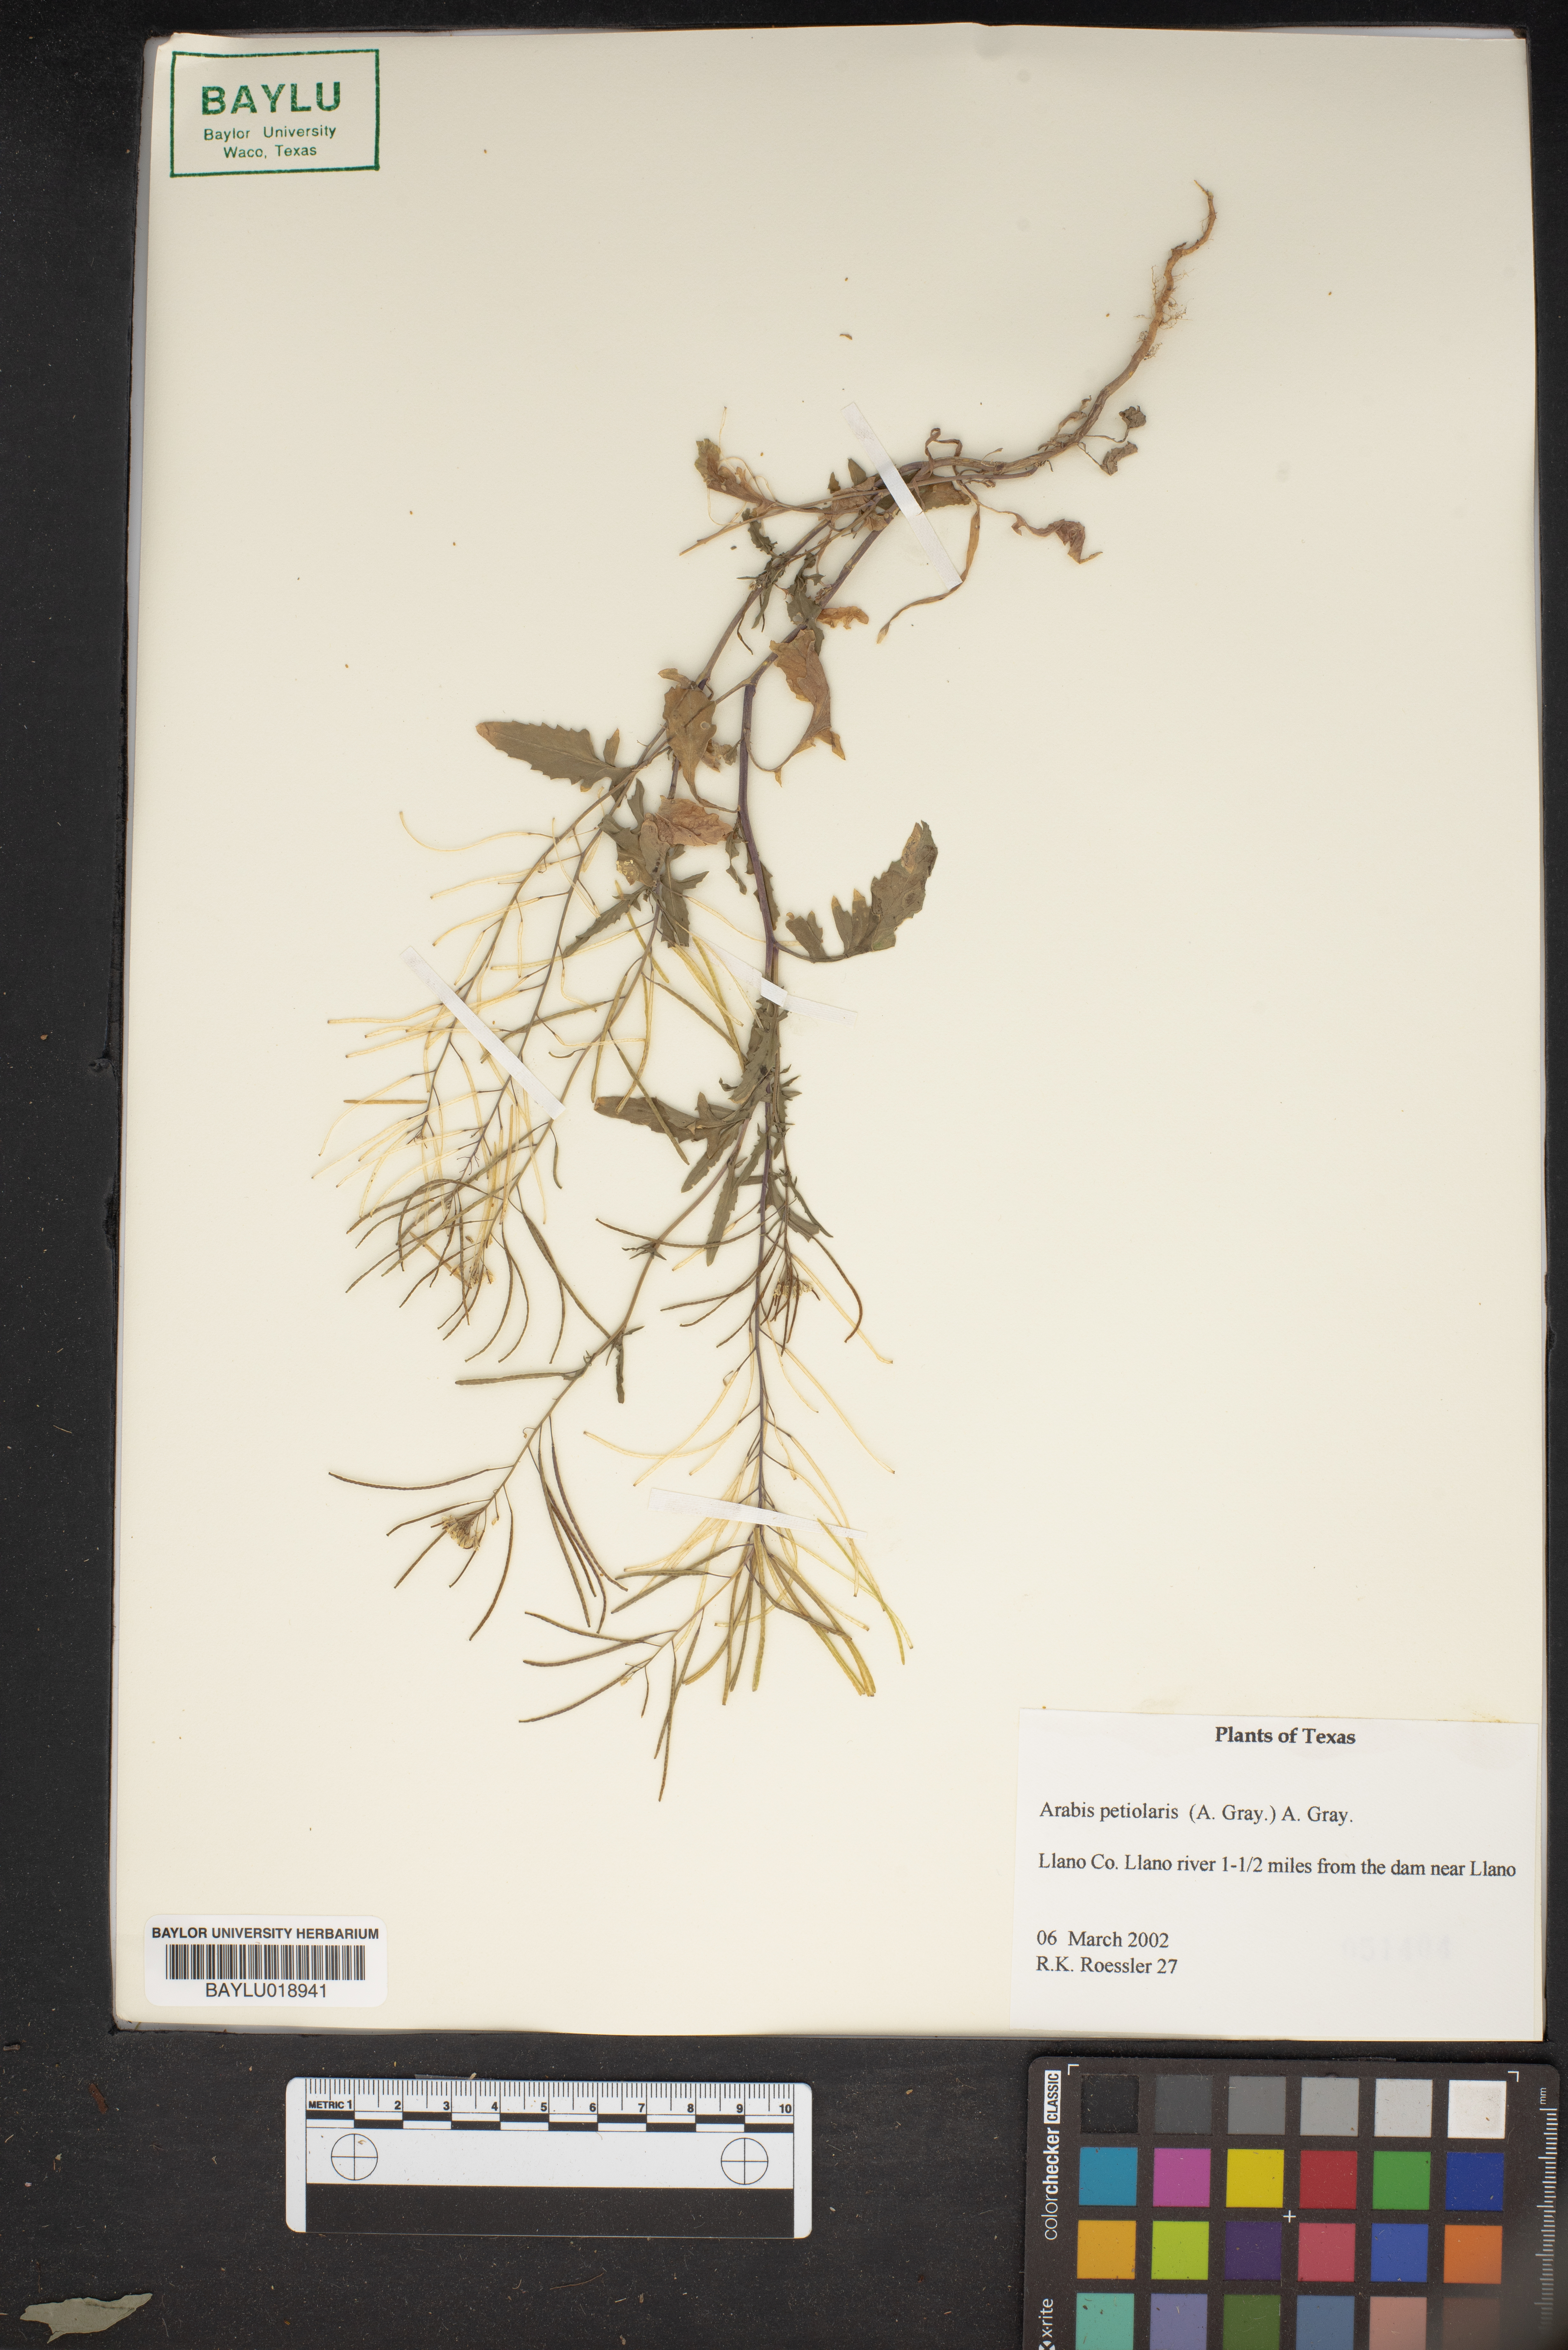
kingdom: Plantae
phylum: Tracheophyta
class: Magnoliopsida
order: Brassicales
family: Brassicaceae
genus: Streptanthus
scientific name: Streptanthus petiolaris
